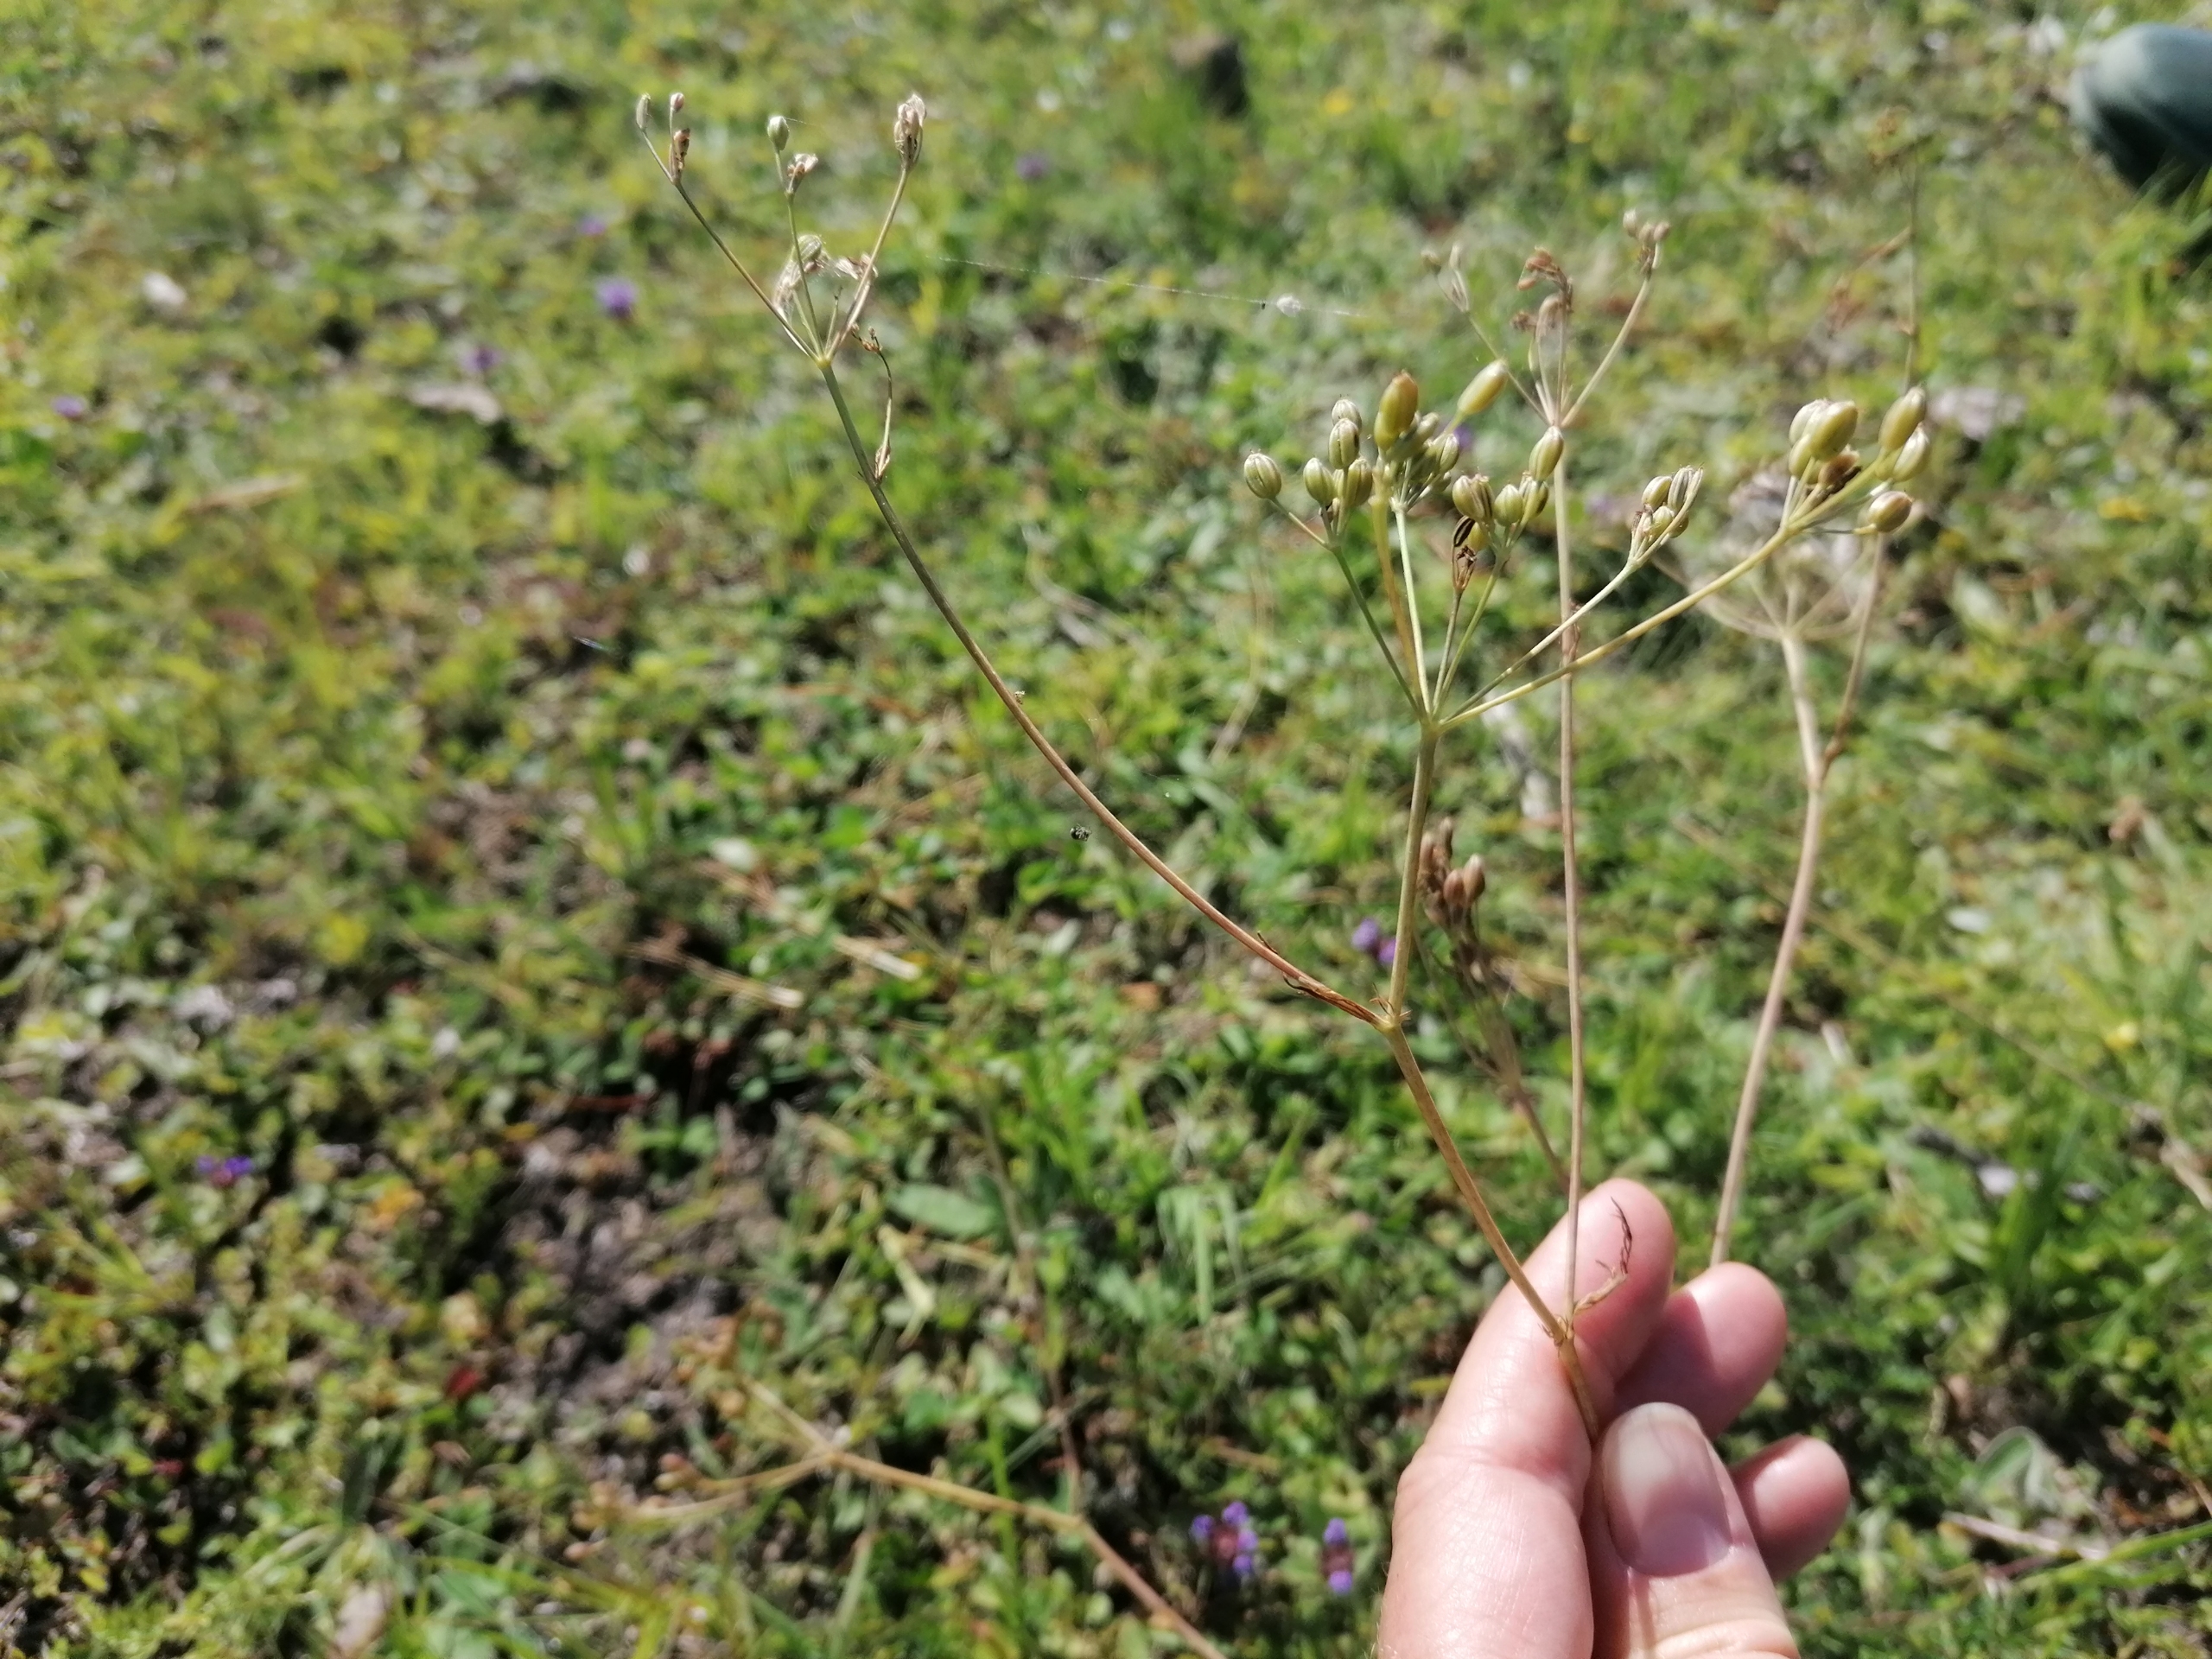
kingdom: Plantae
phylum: Tracheophyta
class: Magnoliopsida
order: Apiales
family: Apiaceae
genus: Carum
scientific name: Carum carvi
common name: Kommen
